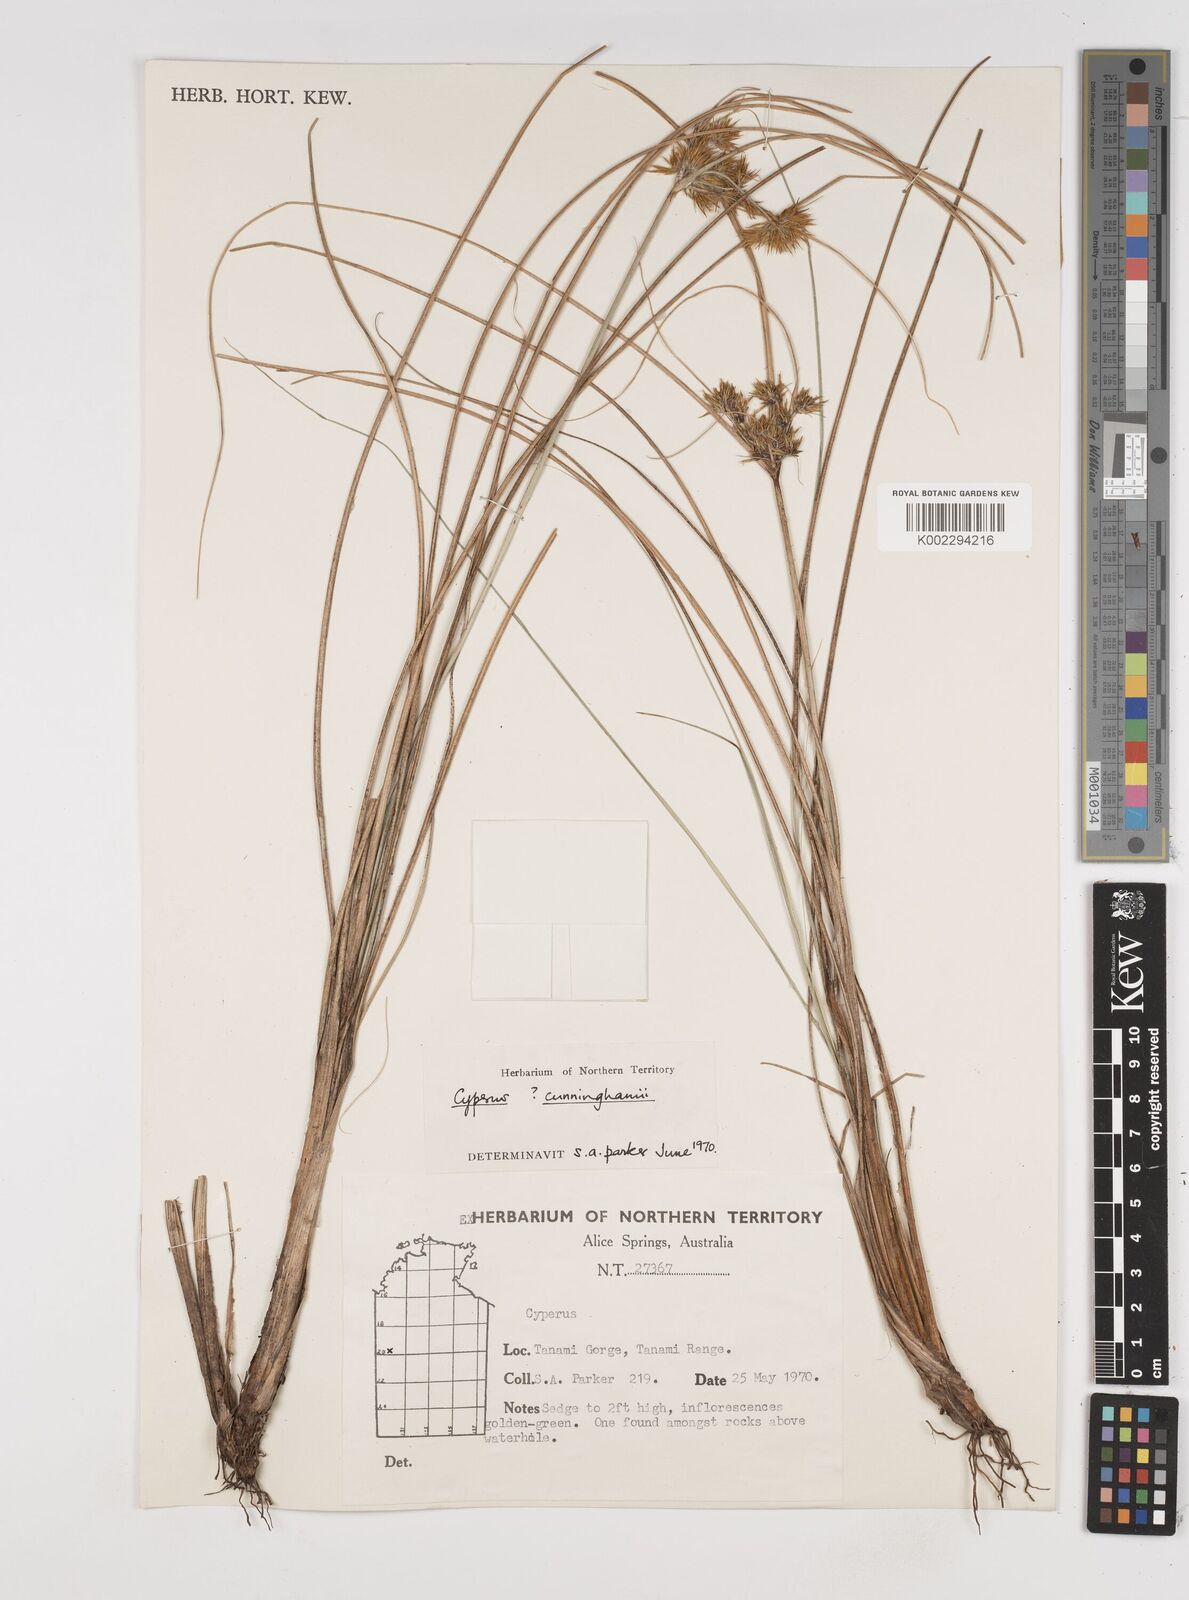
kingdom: Plantae
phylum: Tracheophyta
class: Liliopsida
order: Poales
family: Cyperaceae
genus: Cyperus
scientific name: Cyperus cunninghamii
